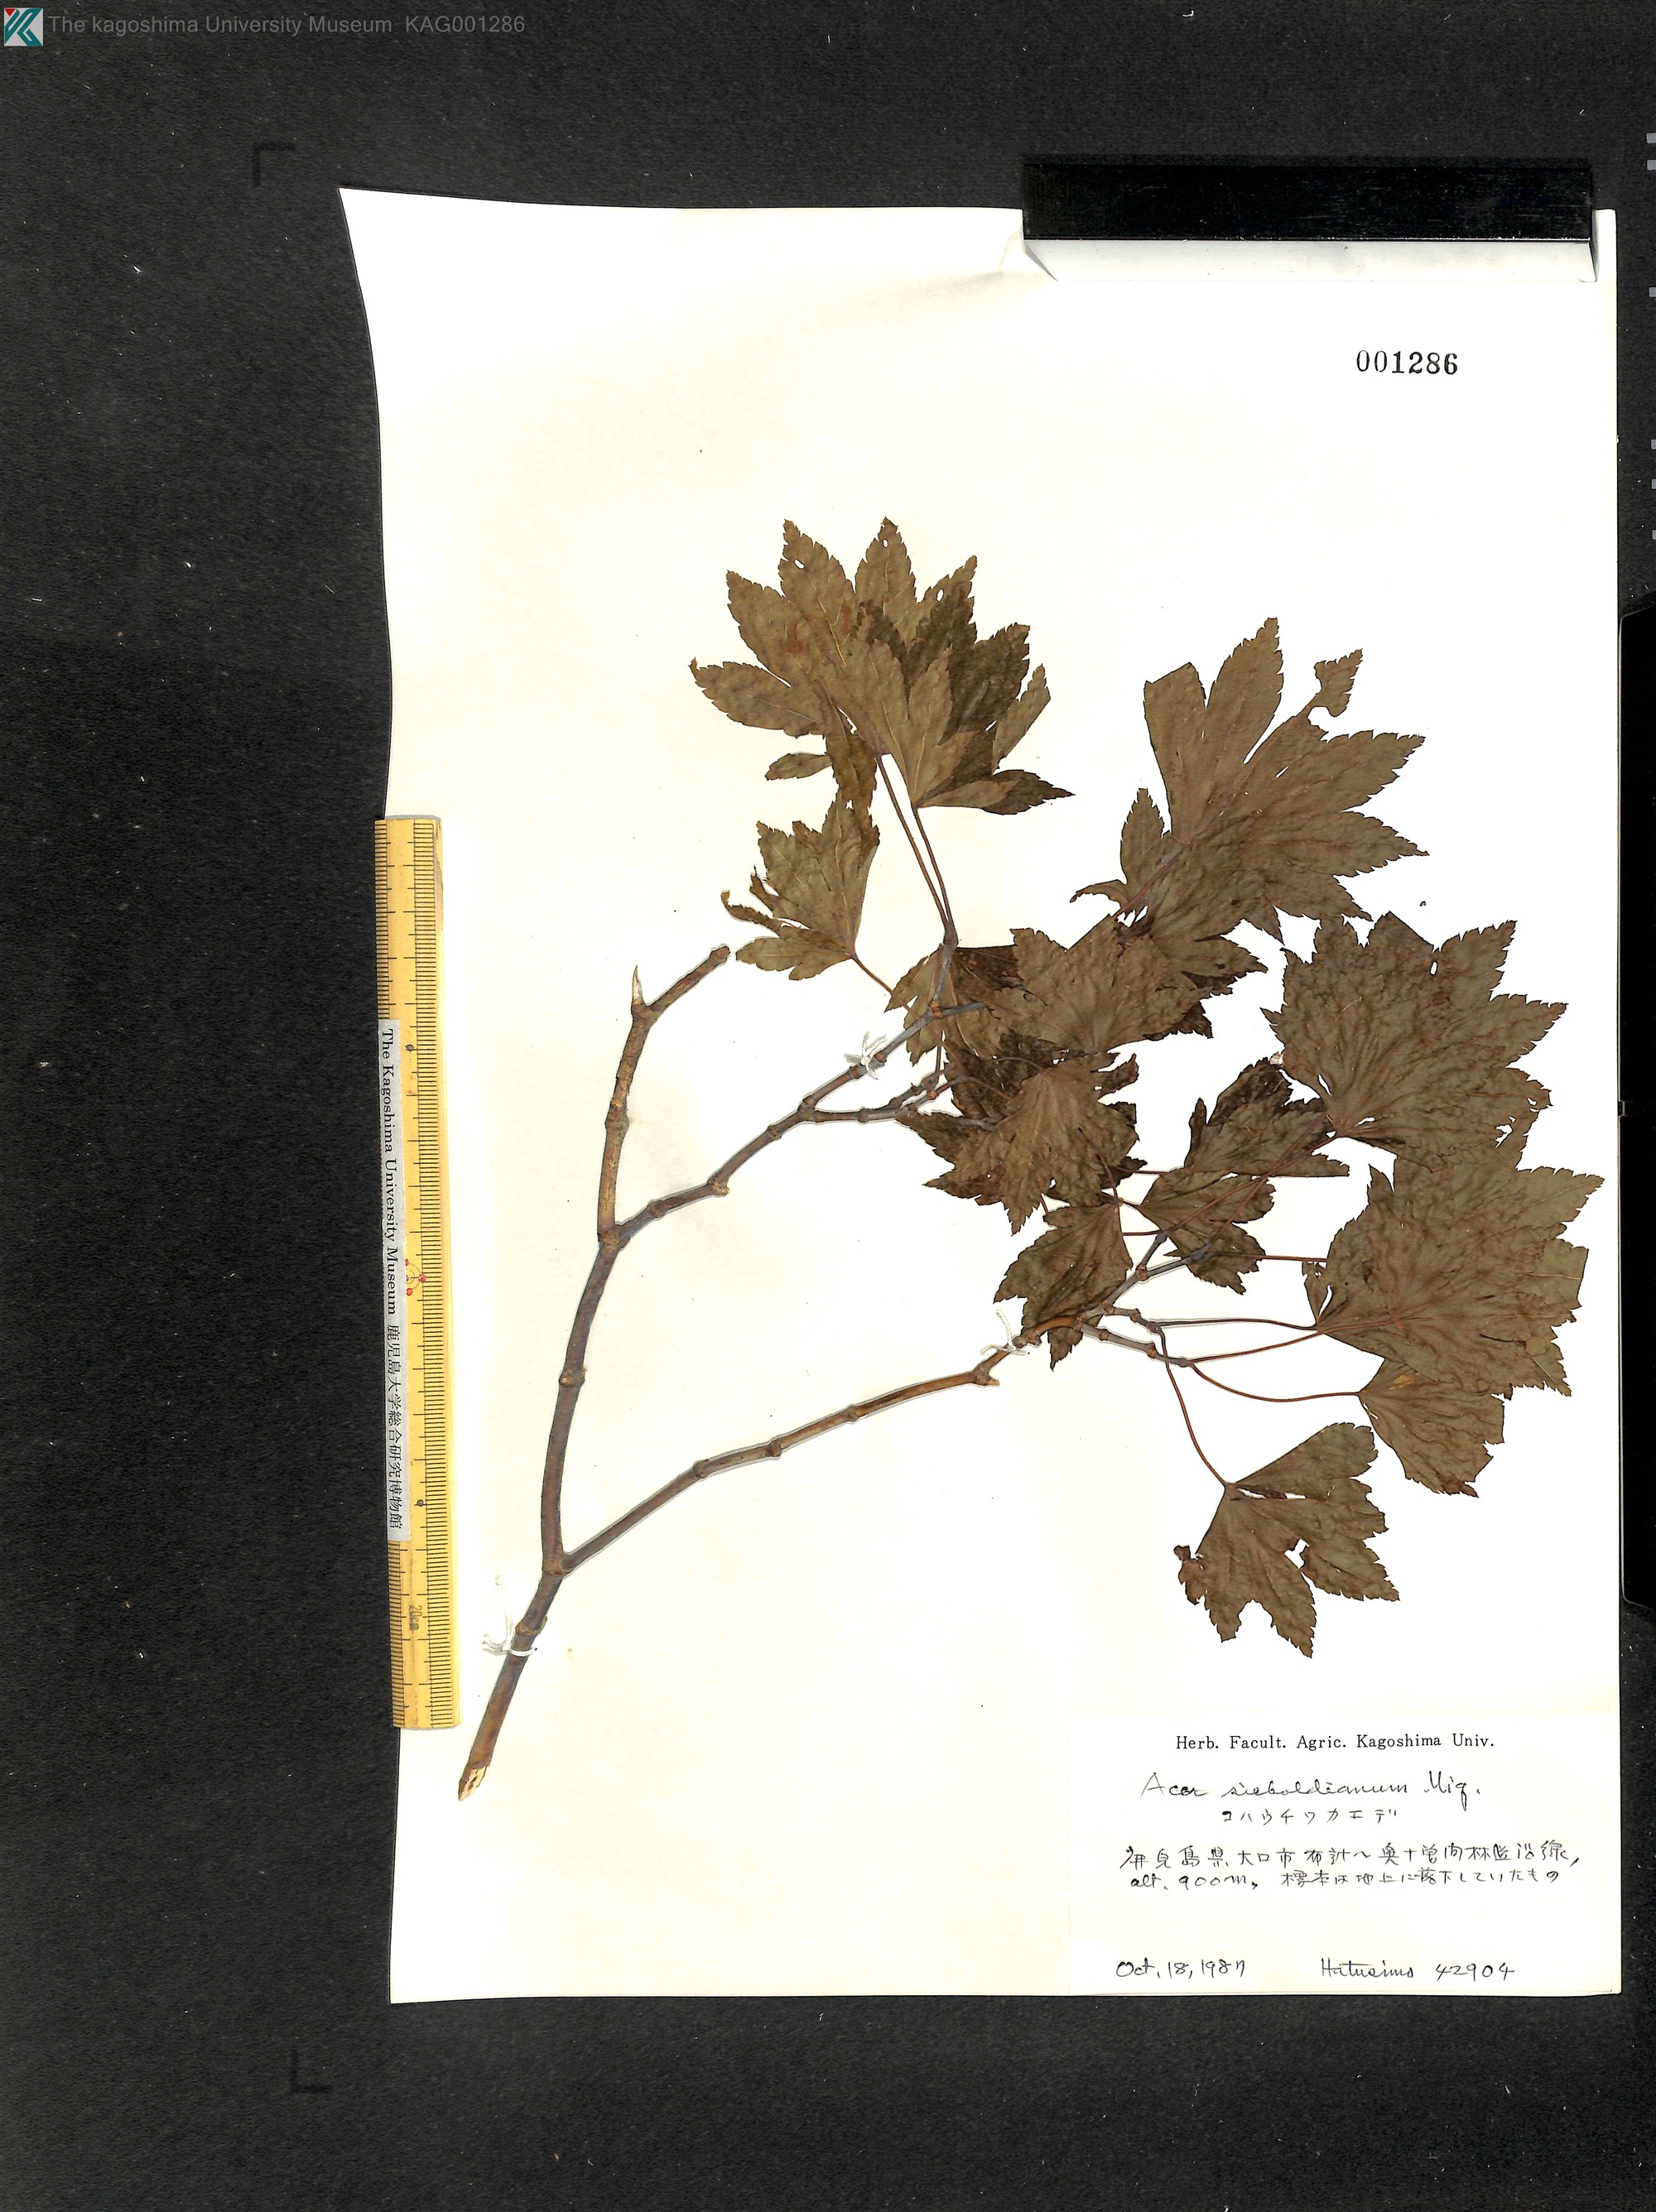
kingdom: Plantae
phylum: Tracheophyta
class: Magnoliopsida
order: Sapindales
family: Sapindaceae
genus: Acer
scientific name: Acer sieboldianum
